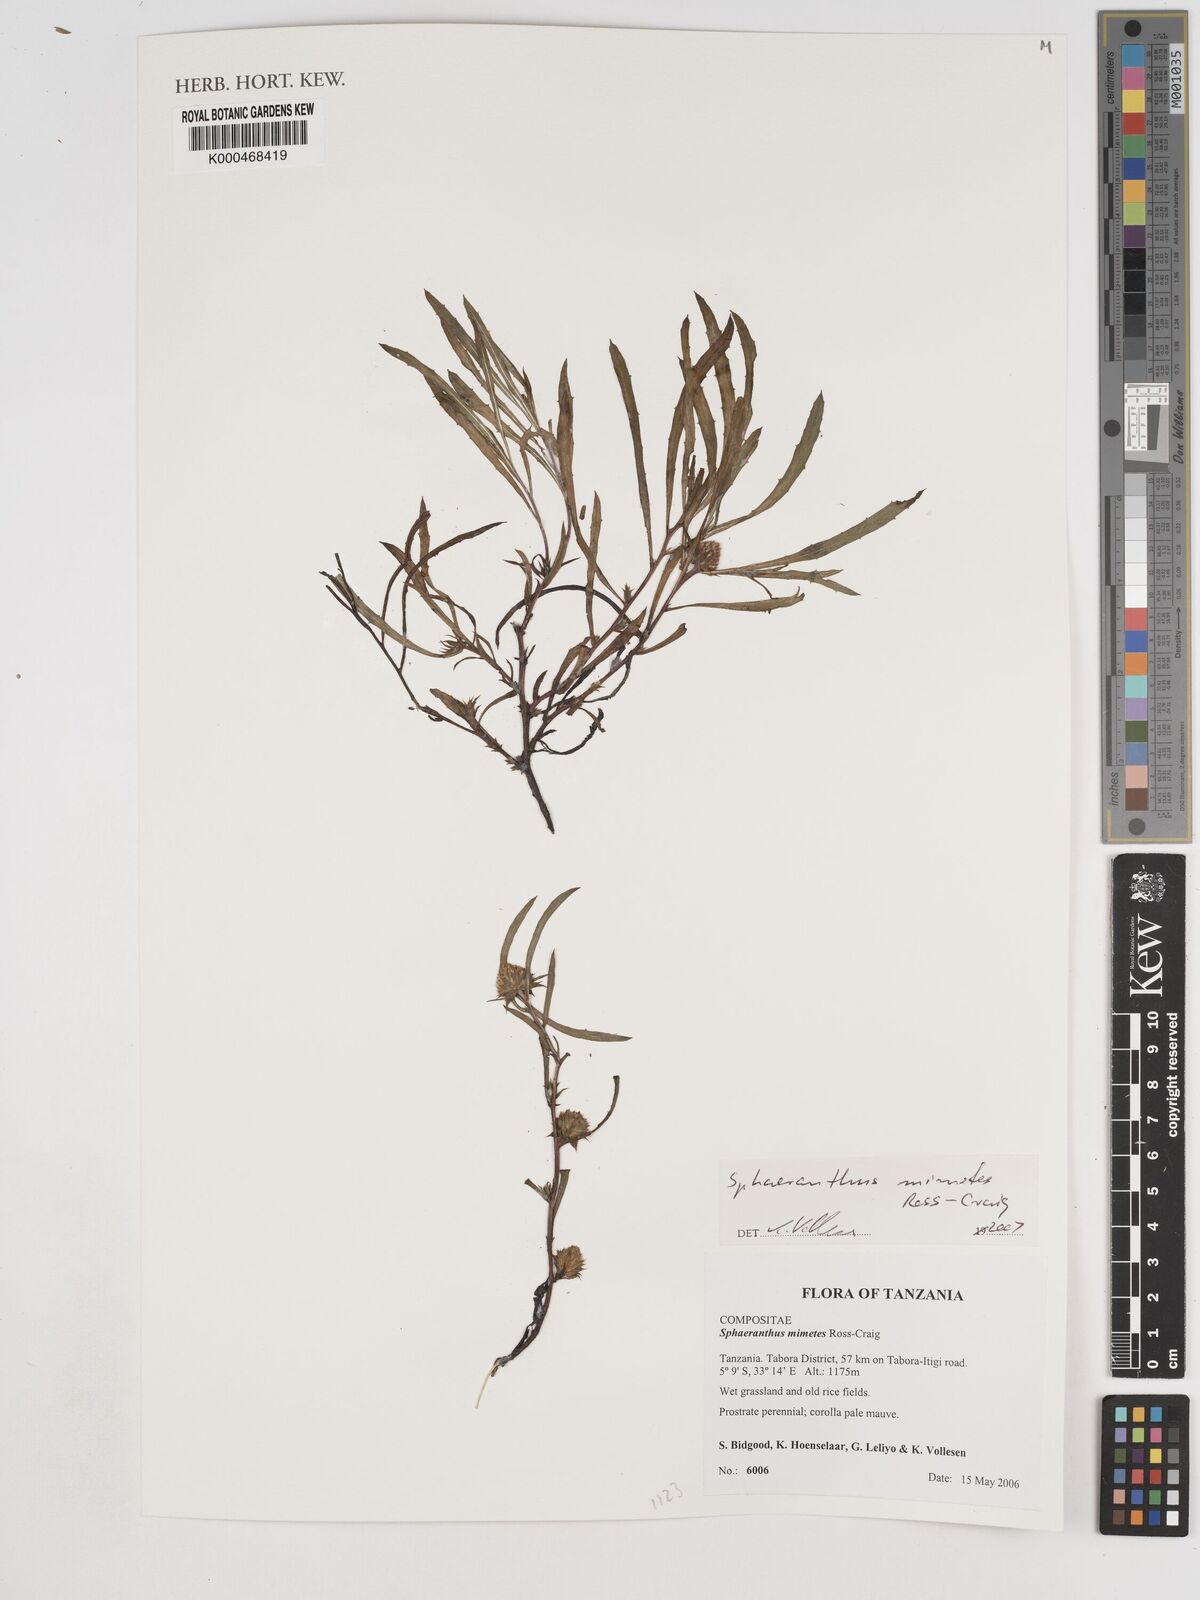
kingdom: Plantae
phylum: Tracheophyta
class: Magnoliopsida
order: Asterales
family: Asteraceae
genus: Sphaeranthus
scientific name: Sphaeranthus mimetes
